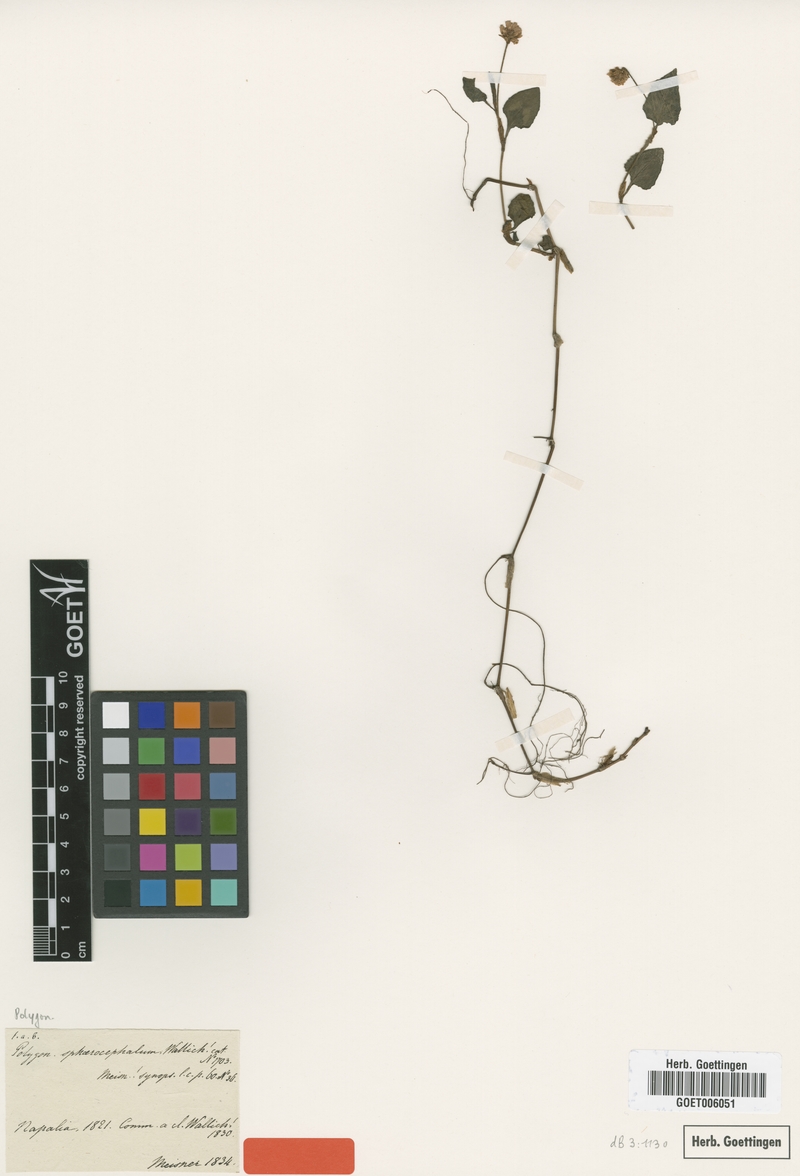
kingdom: Plantae
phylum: Tracheophyta
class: Magnoliopsida
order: Caryophyllales
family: Polygonaceae
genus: Persicaria
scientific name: Persicaria microcephala
